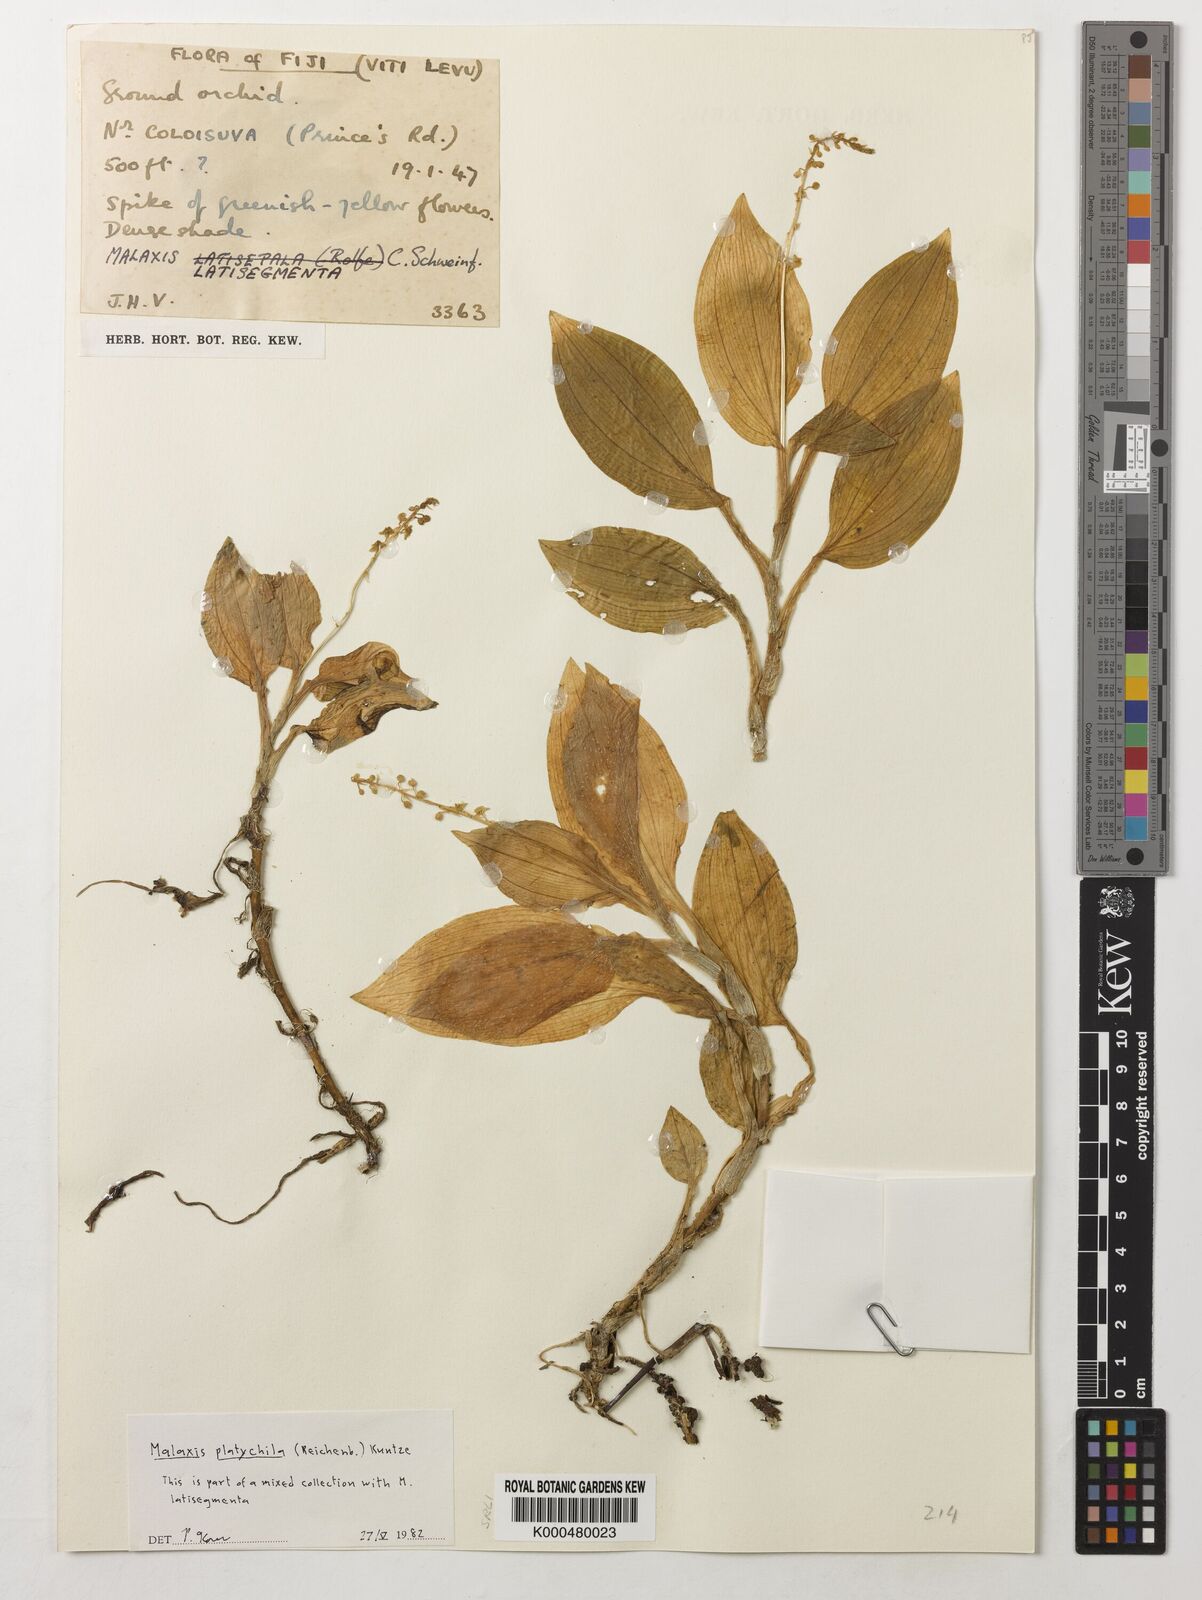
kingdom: Plantae
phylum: Tracheophyta
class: Liliopsida
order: Asparagales
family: Orchidaceae
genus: Crepidium
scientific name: Crepidium platychilum
